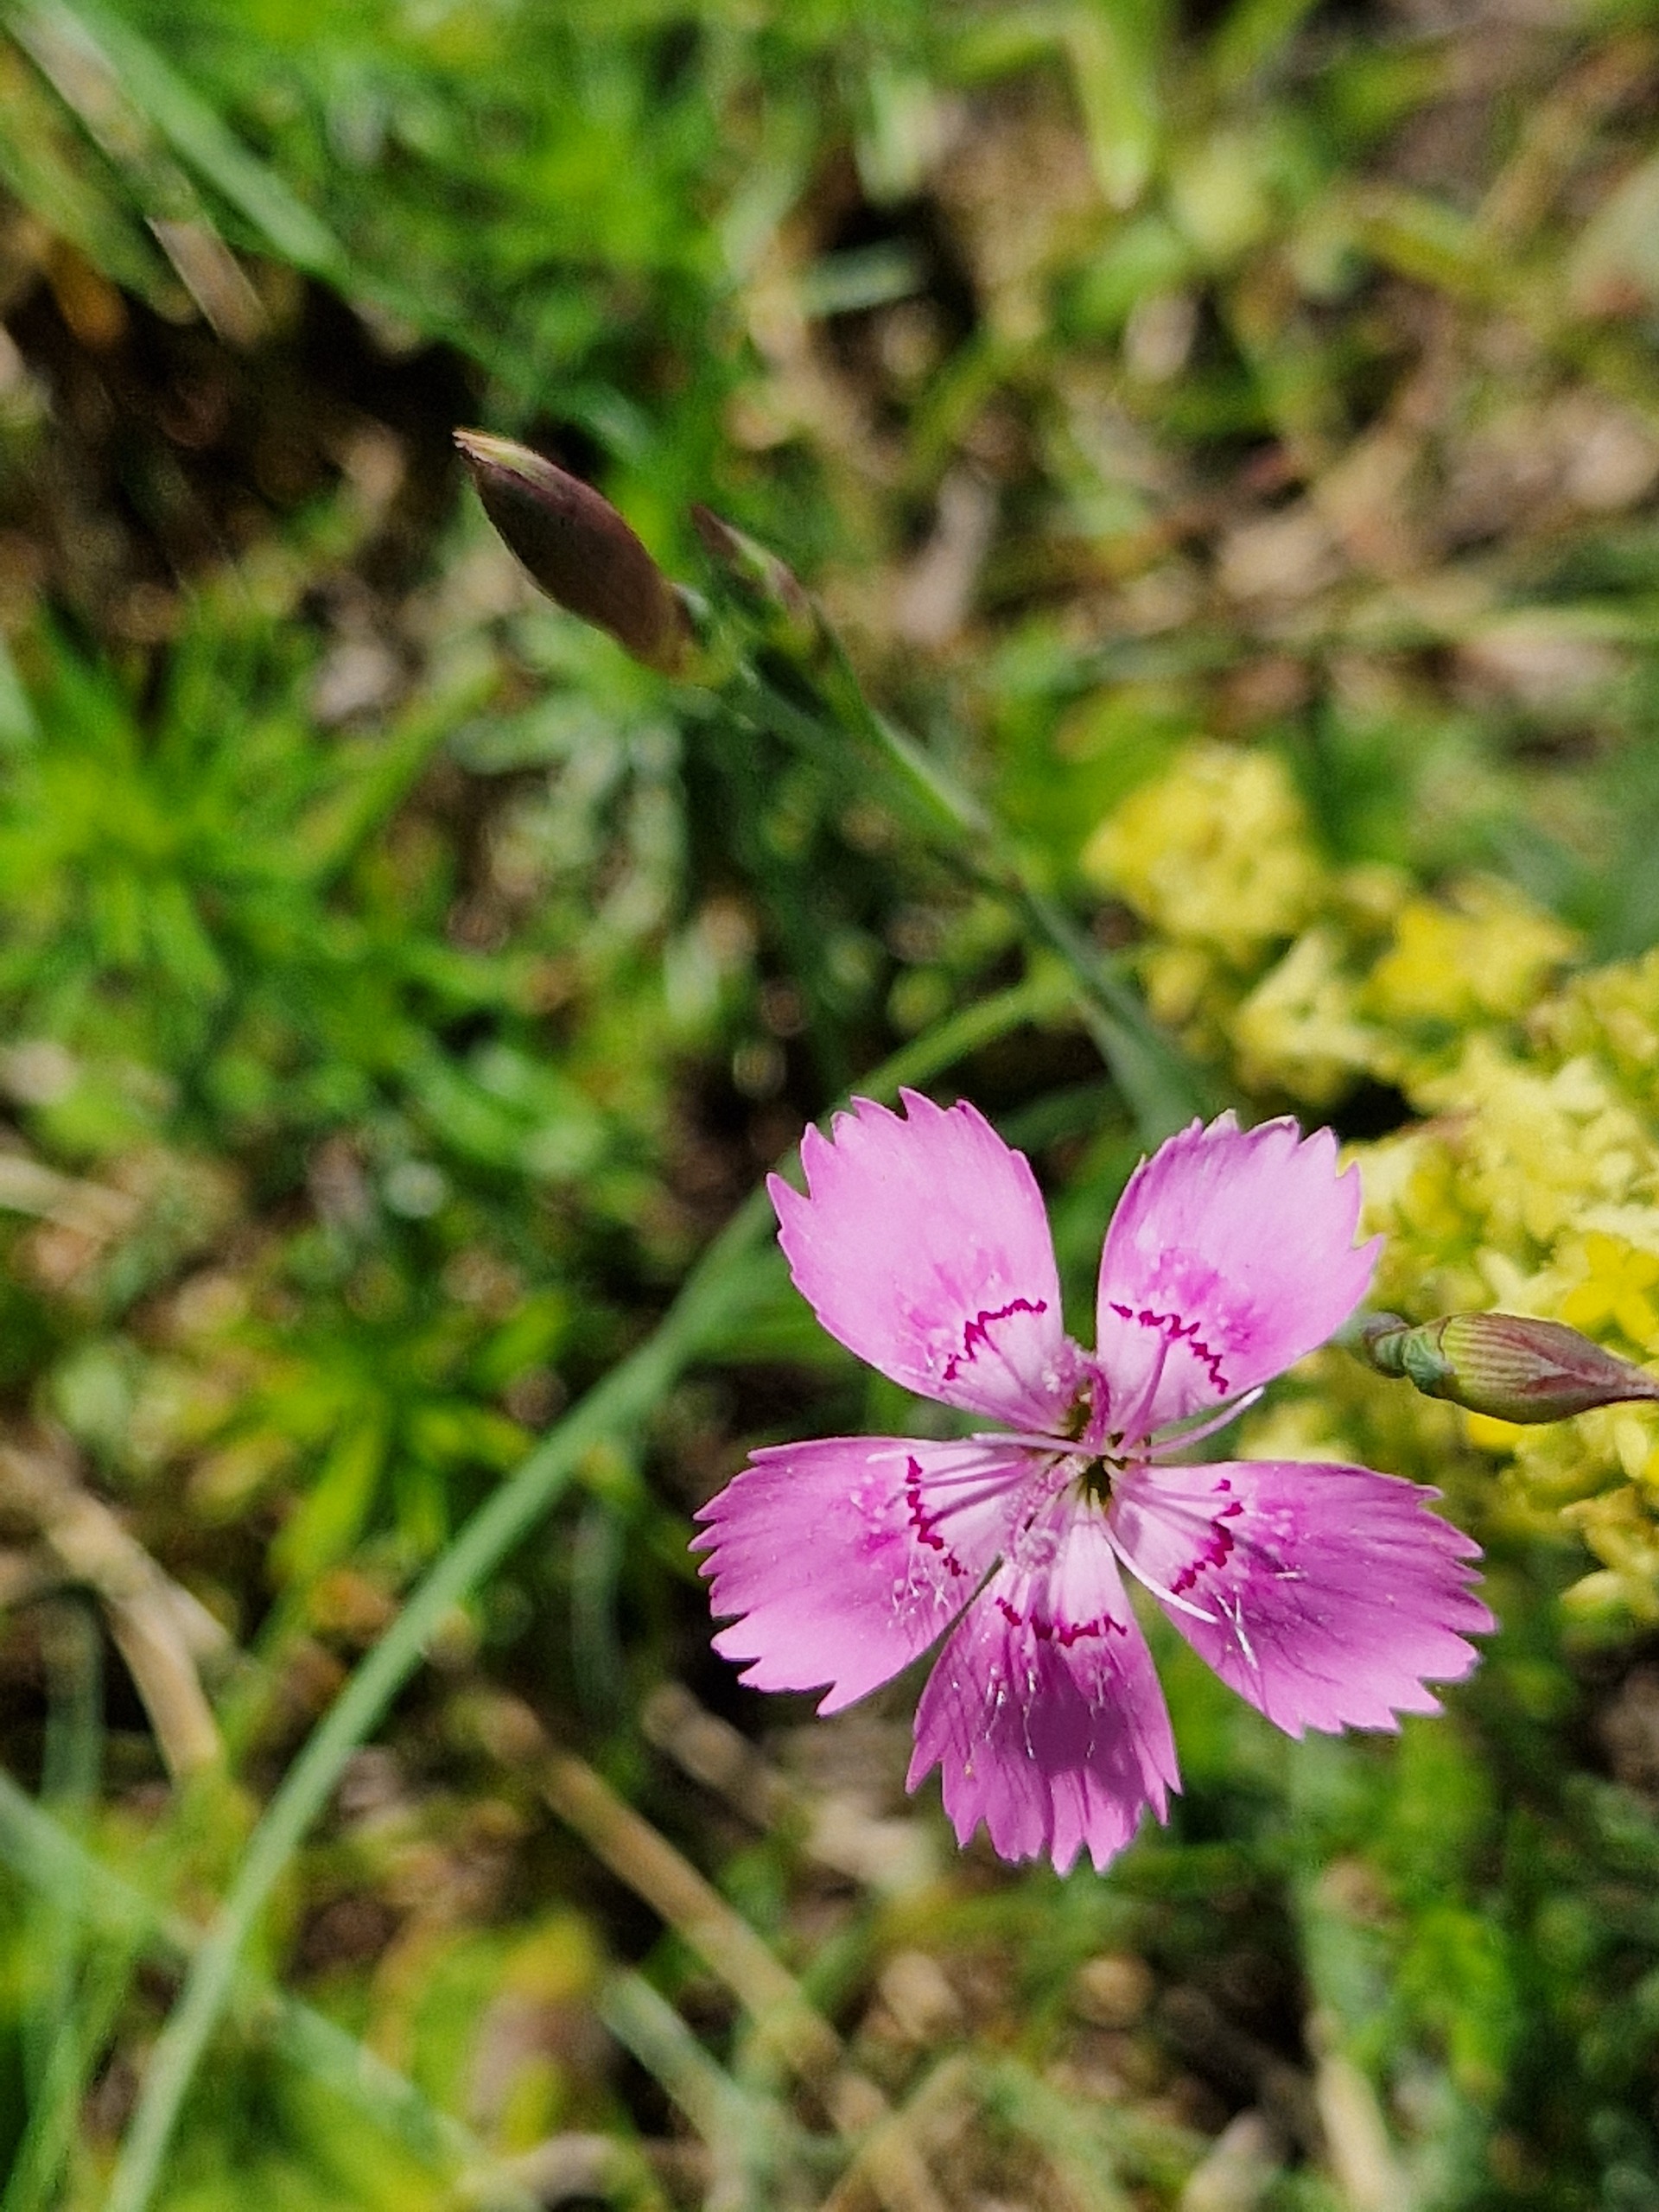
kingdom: Plantae
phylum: Tracheophyta
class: Magnoliopsida
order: Caryophyllales
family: Caryophyllaceae
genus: Dianthus
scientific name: Dianthus deltoides
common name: Bakke-nellike
